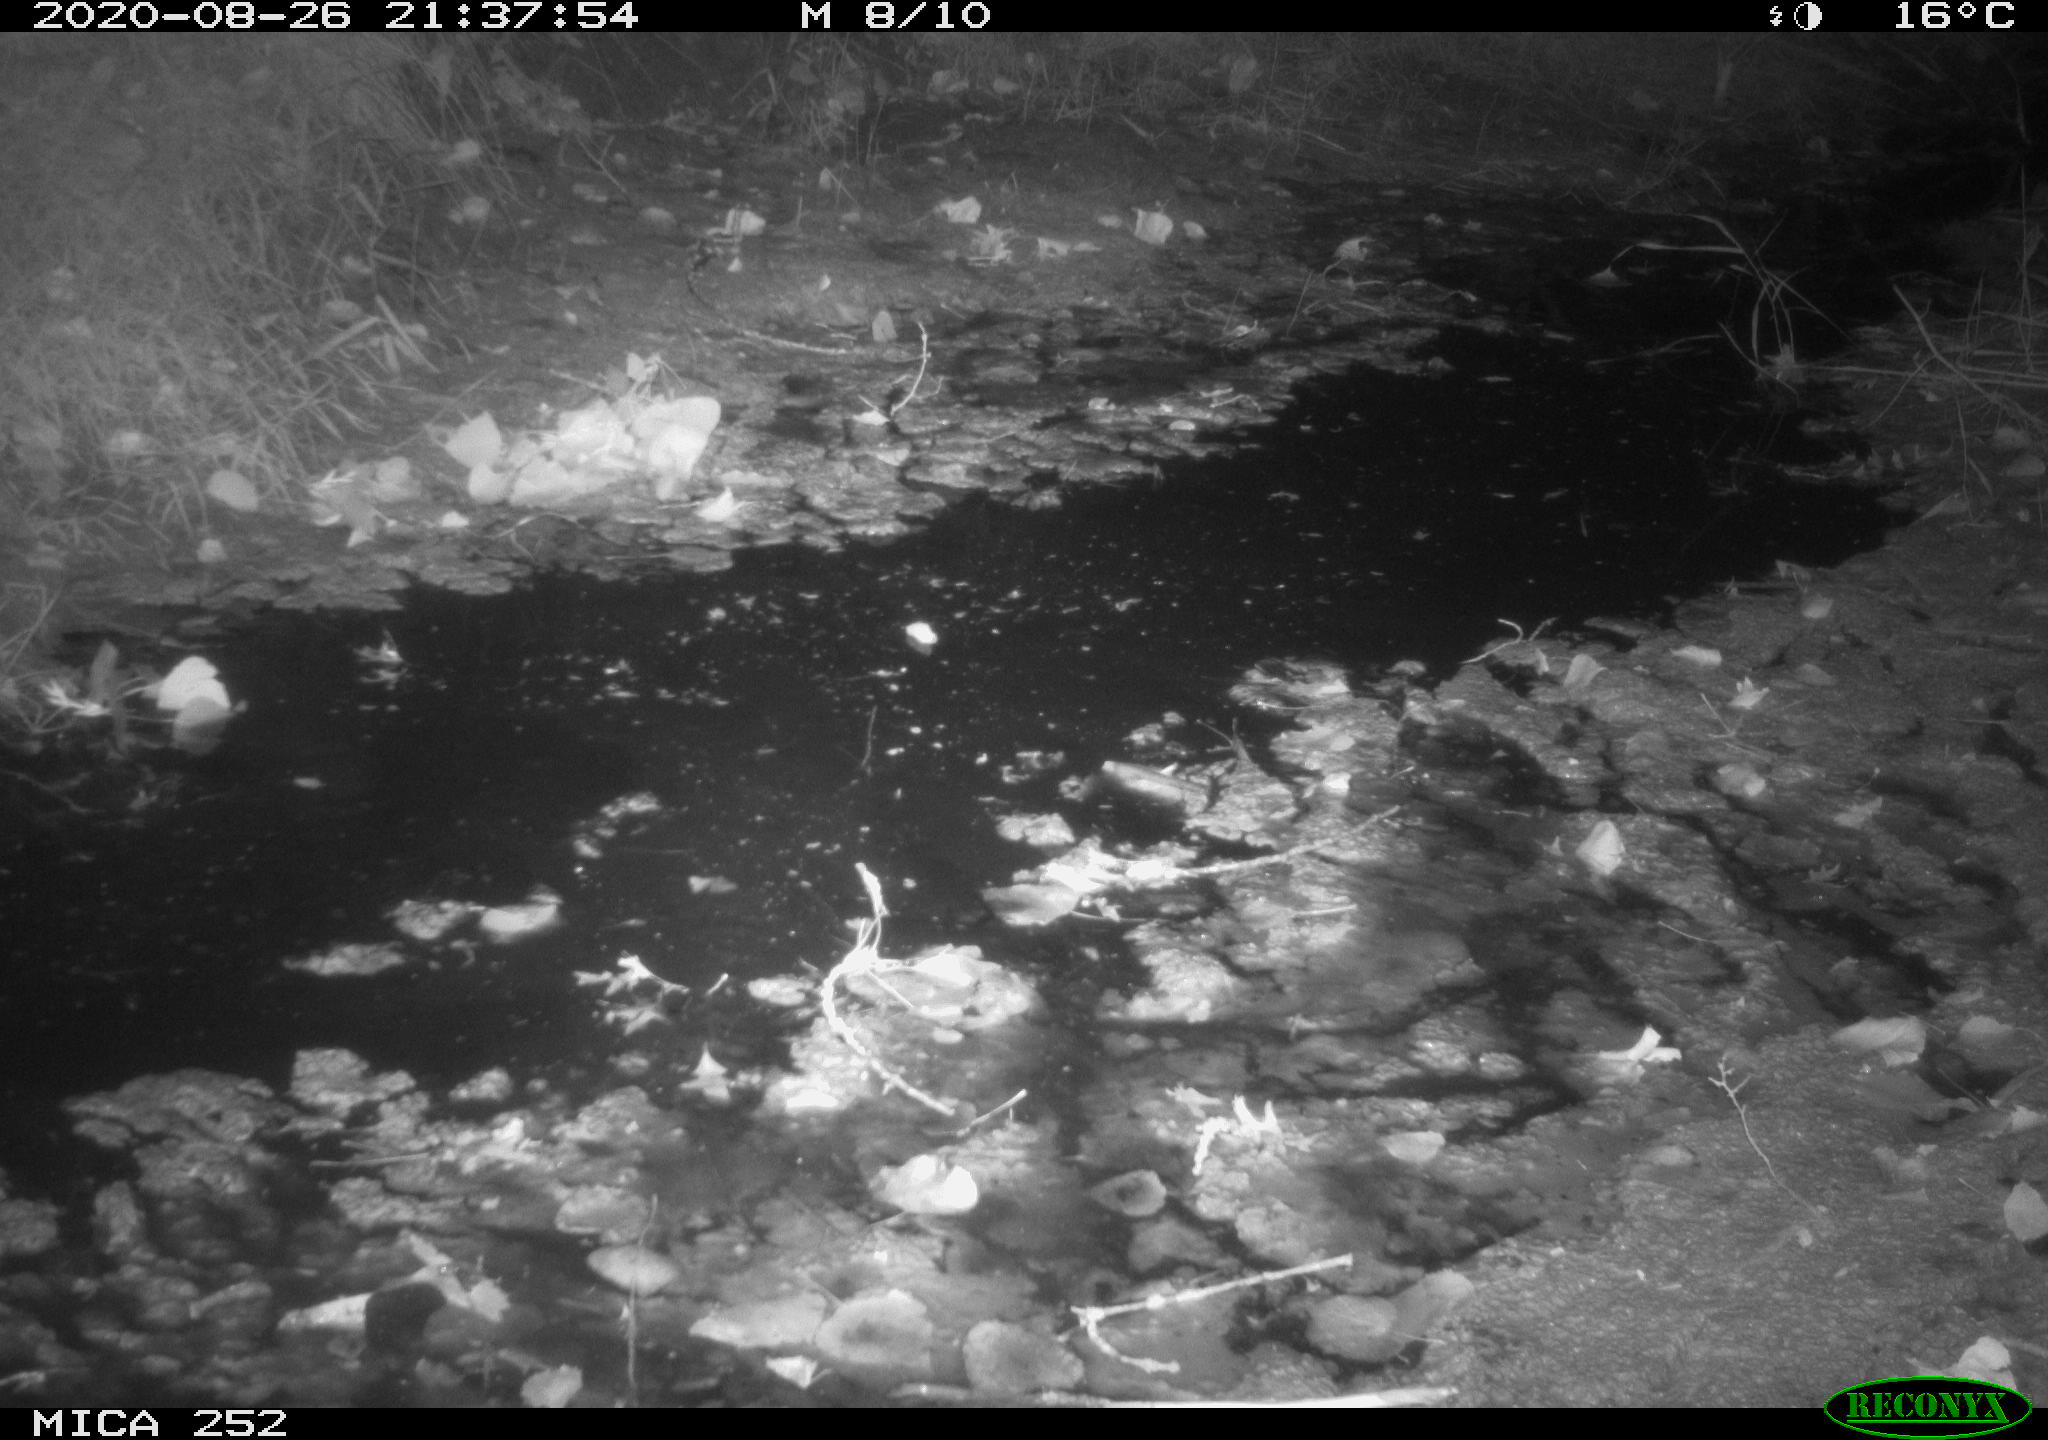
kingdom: Animalia
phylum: Chordata
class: Mammalia
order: Rodentia
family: Castoridae
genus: Castor
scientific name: Castor fiber
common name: Eurasian beaver
